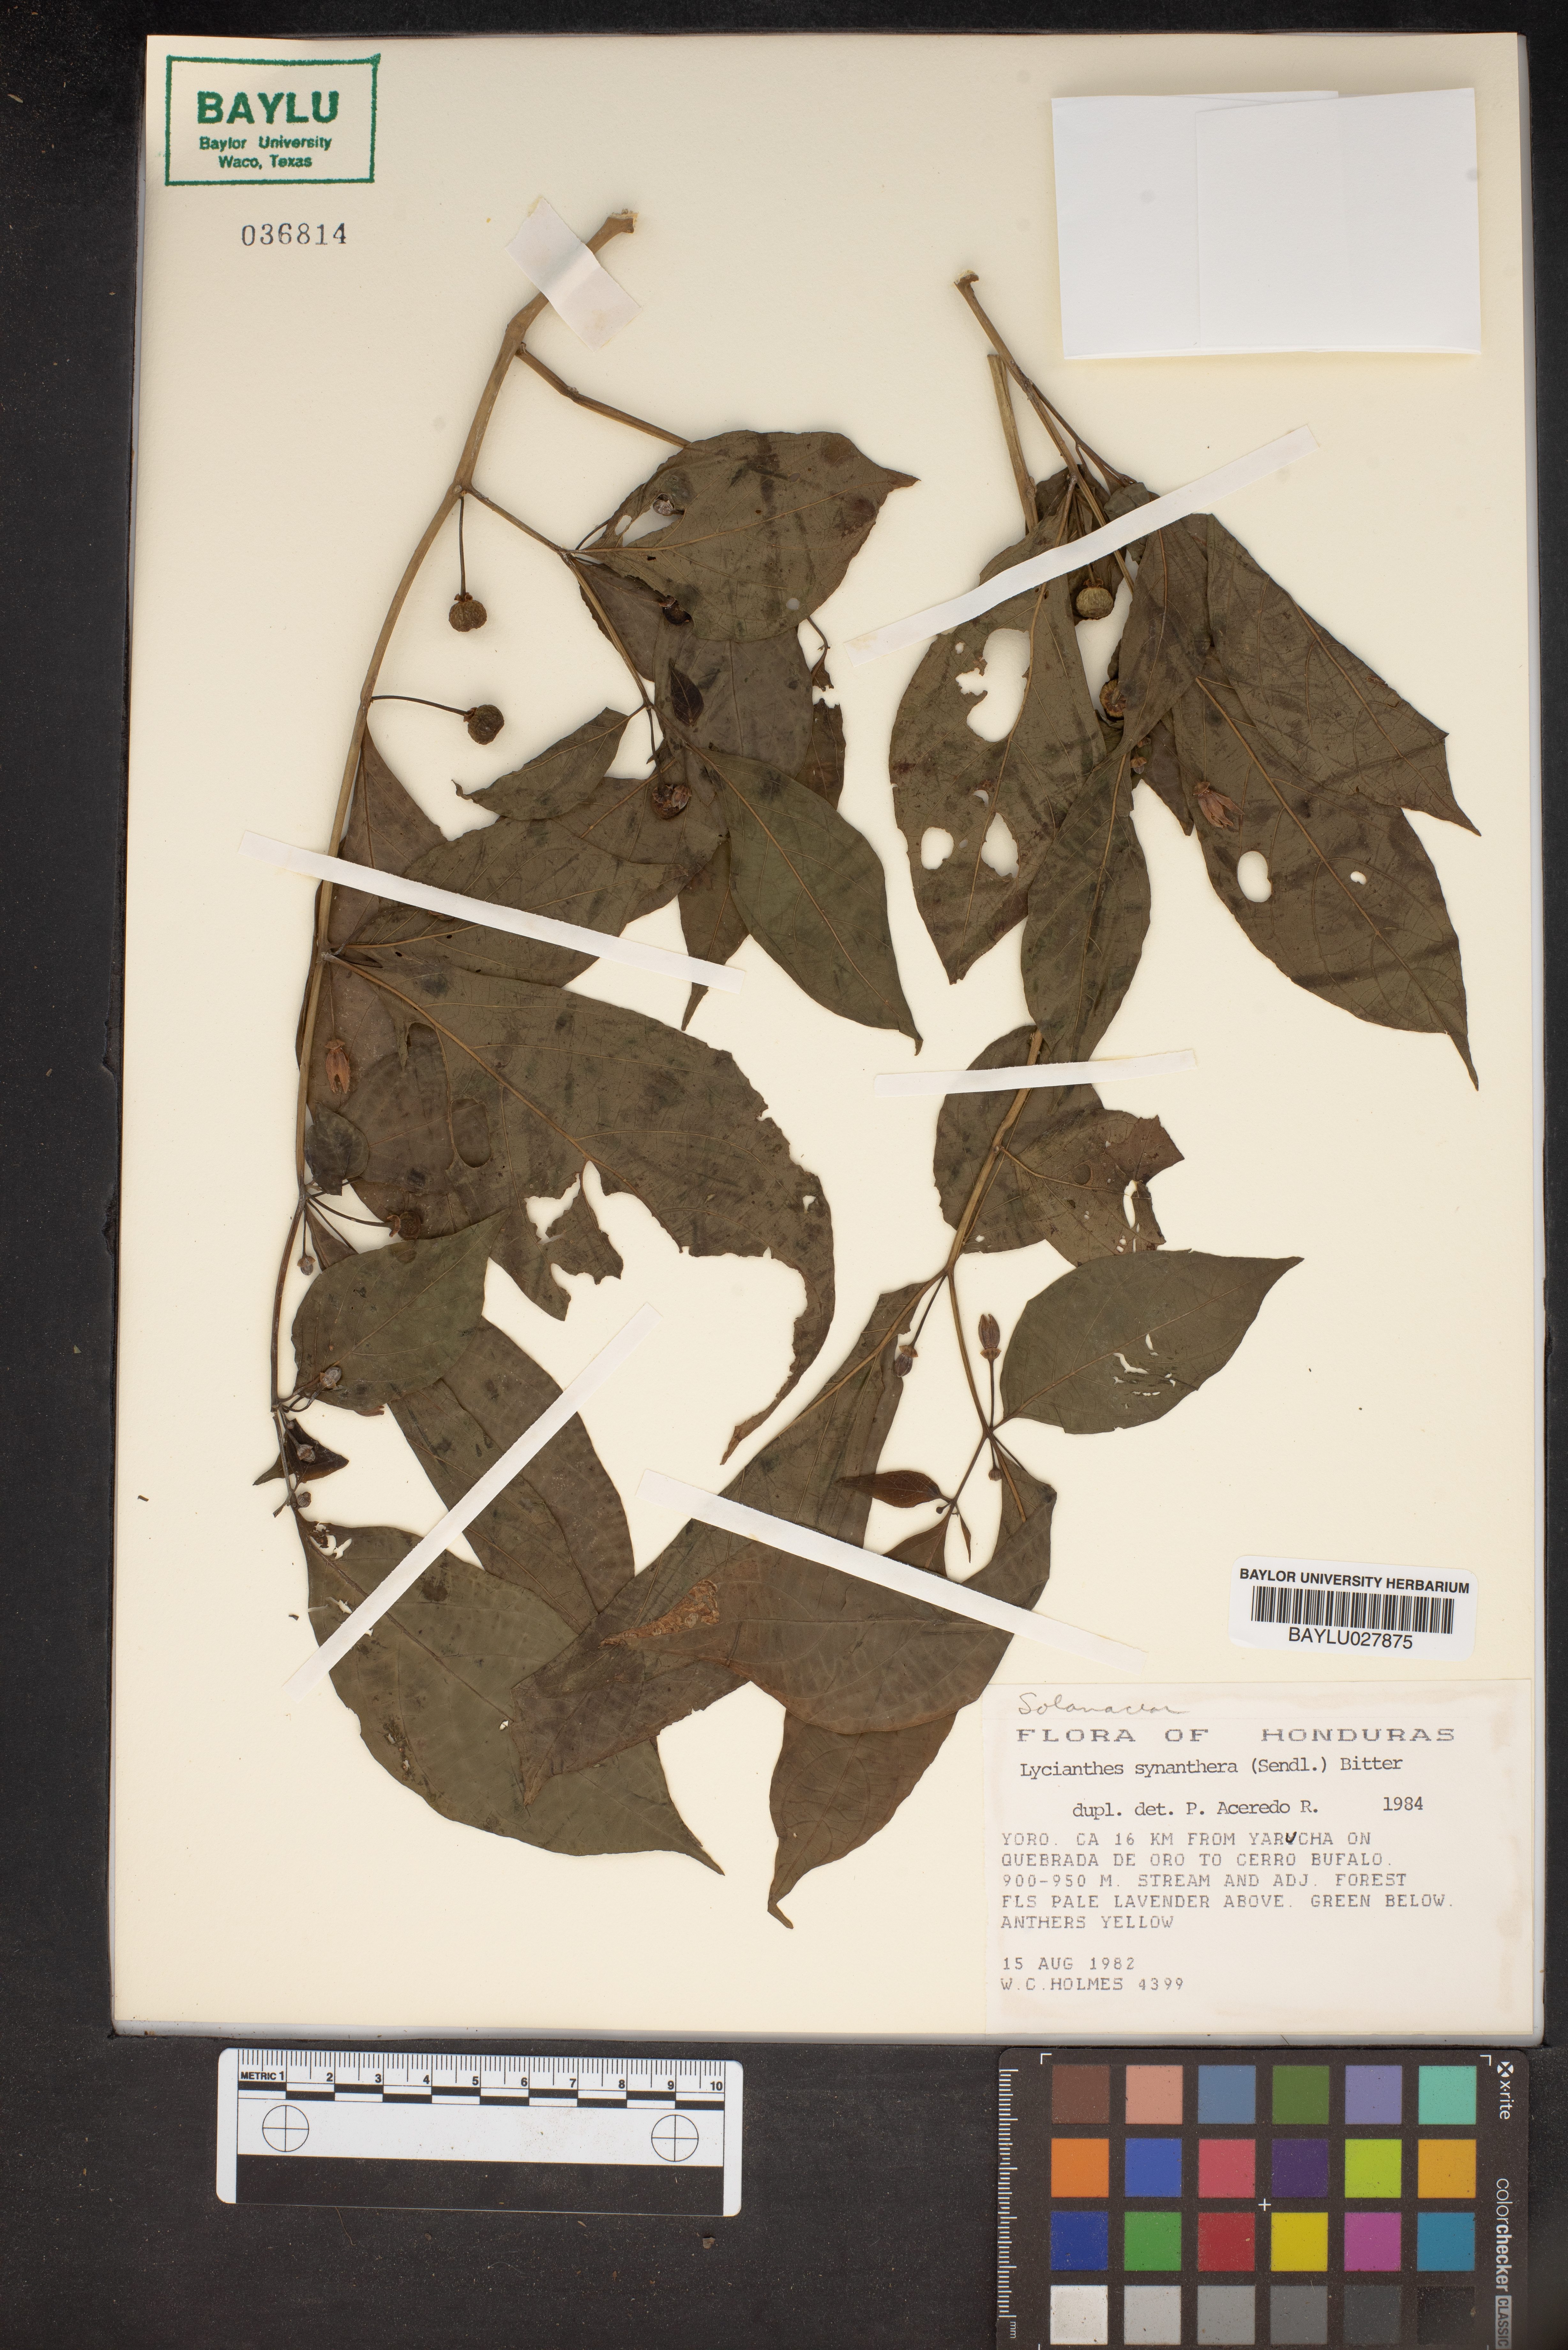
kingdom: Plantae
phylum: Tracheophyta
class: Magnoliopsida
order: Solanales
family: Solanaceae
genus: Lycianthes
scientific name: Lycianthes synanthera
